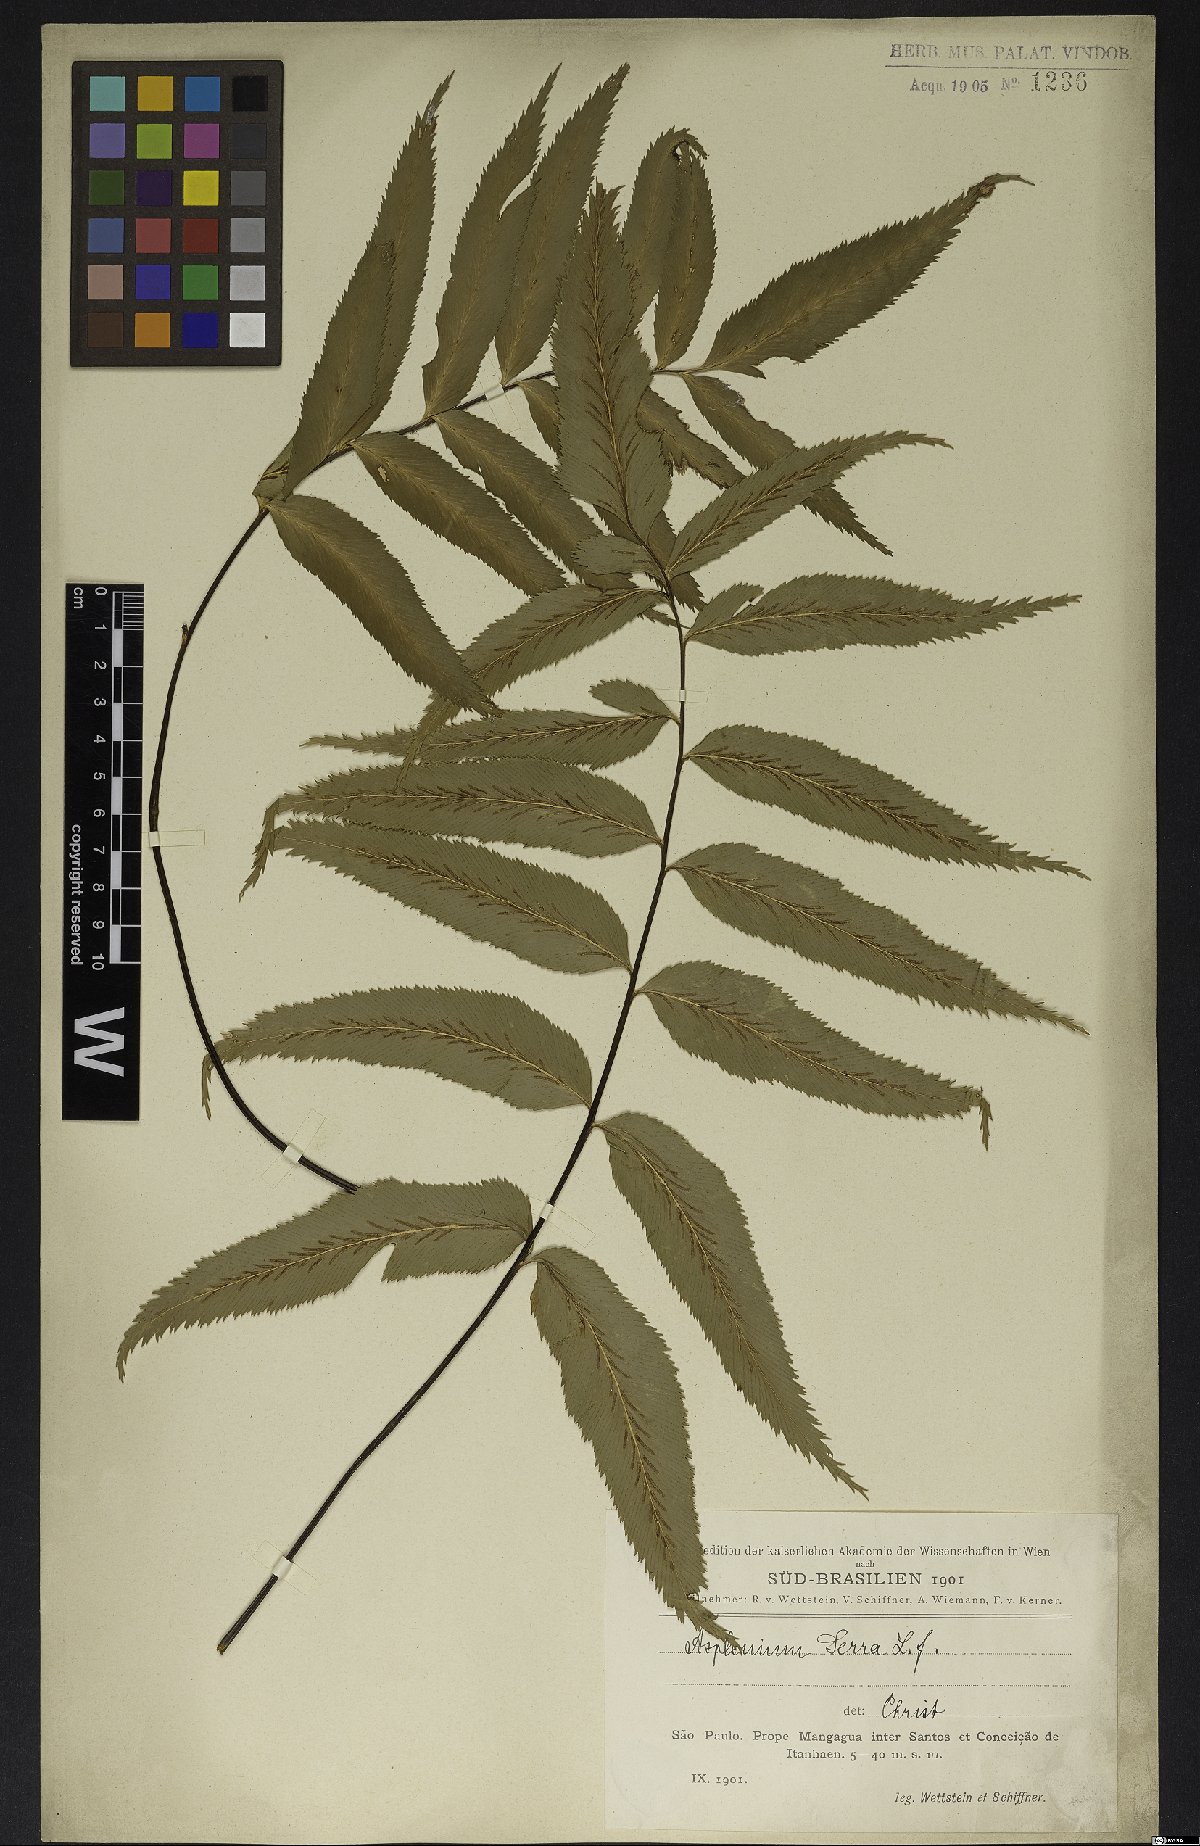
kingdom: Plantae
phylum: Tracheophyta
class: Polypodiopsida
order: Polypodiales
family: Aspleniaceae
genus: Asplenium
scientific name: Asplenium serra
